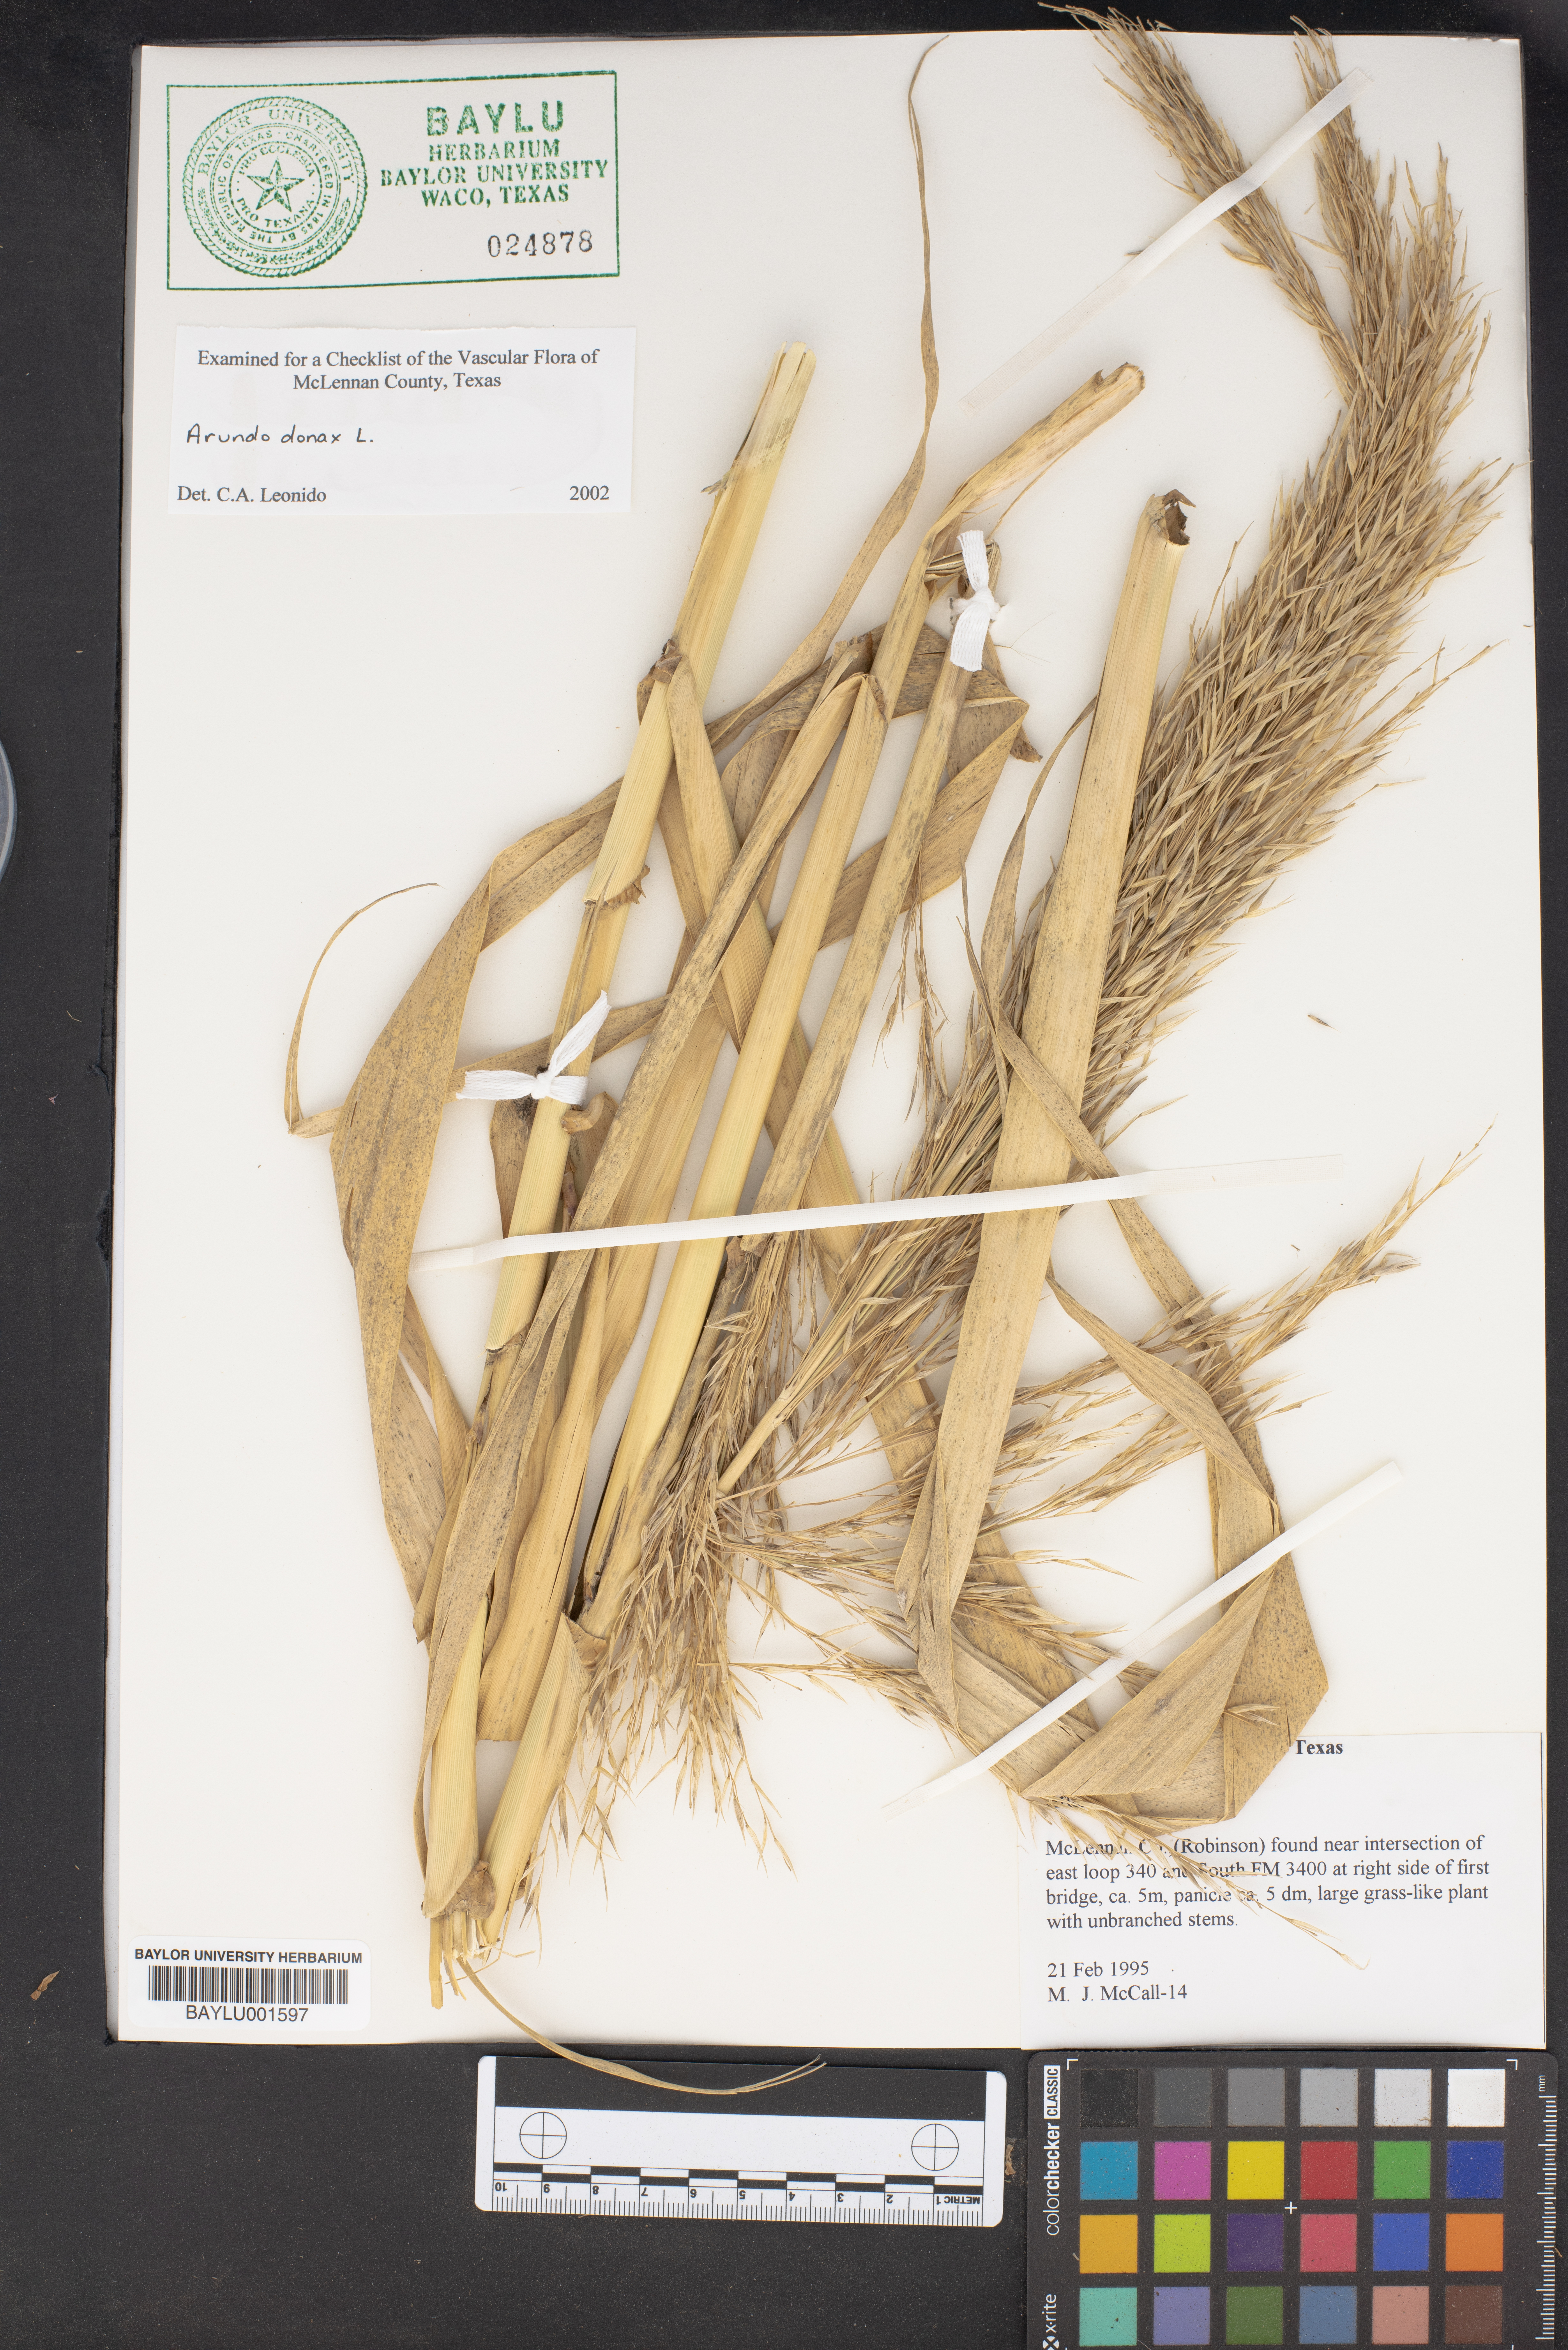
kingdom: Plantae
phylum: Tracheophyta
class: Liliopsida
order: Poales
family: Poaceae
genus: Arundo
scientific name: Arundo donax
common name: Giant reed
